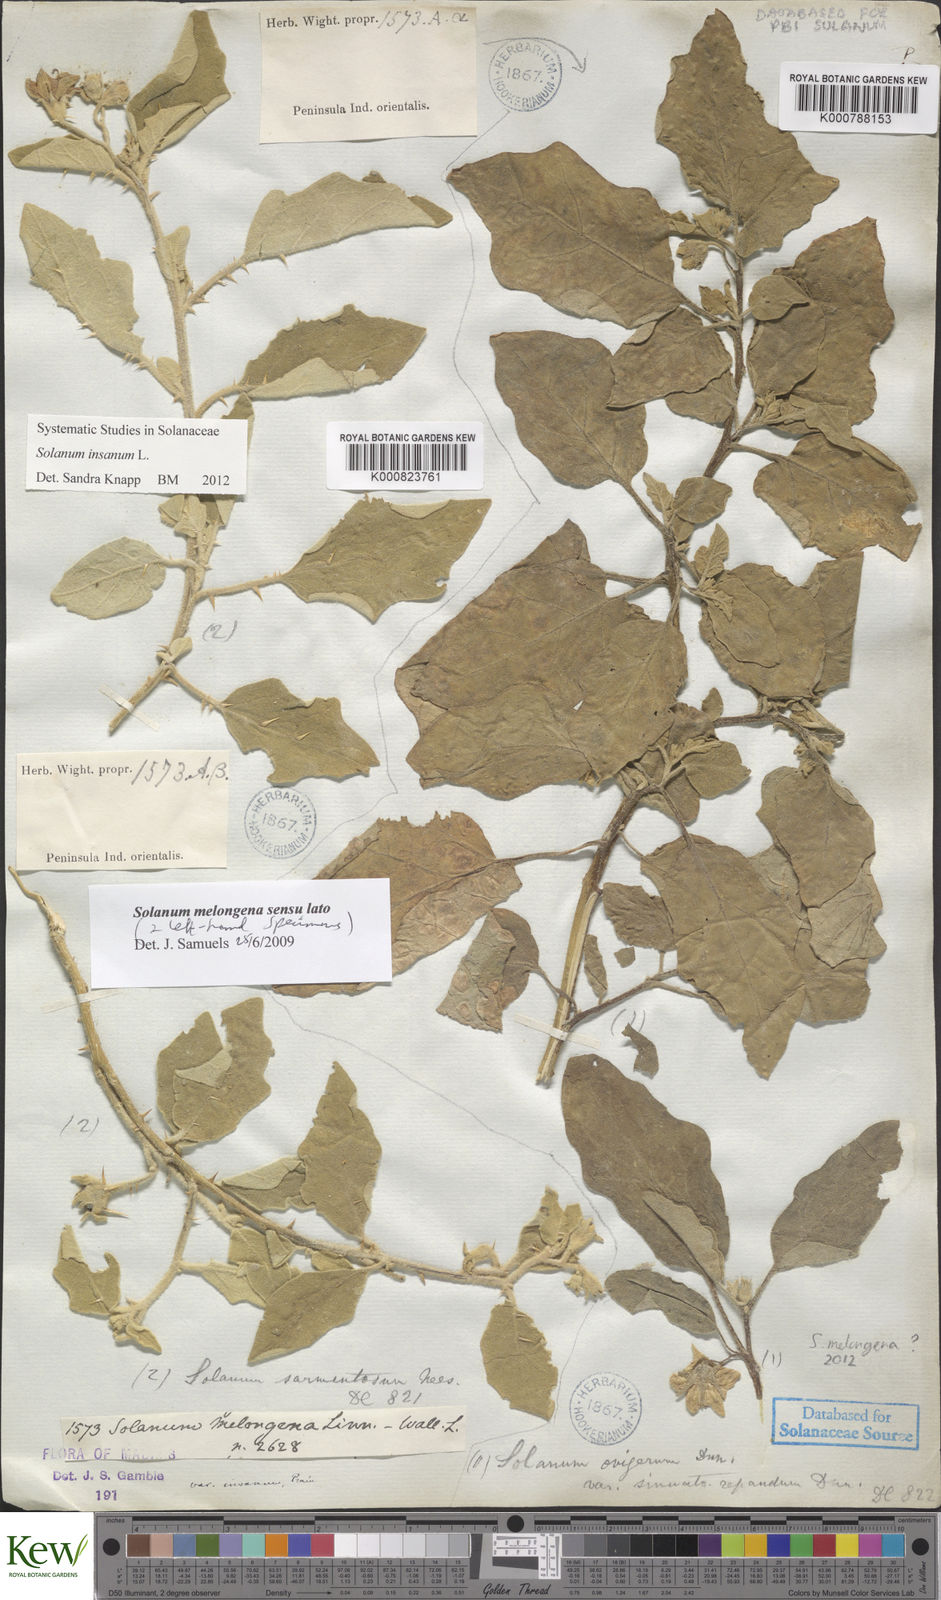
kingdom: Plantae
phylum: Tracheophyta
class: Magnoliopsida
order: Solanales
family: Solanaceae
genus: Solanum
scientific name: Solanum insanum
